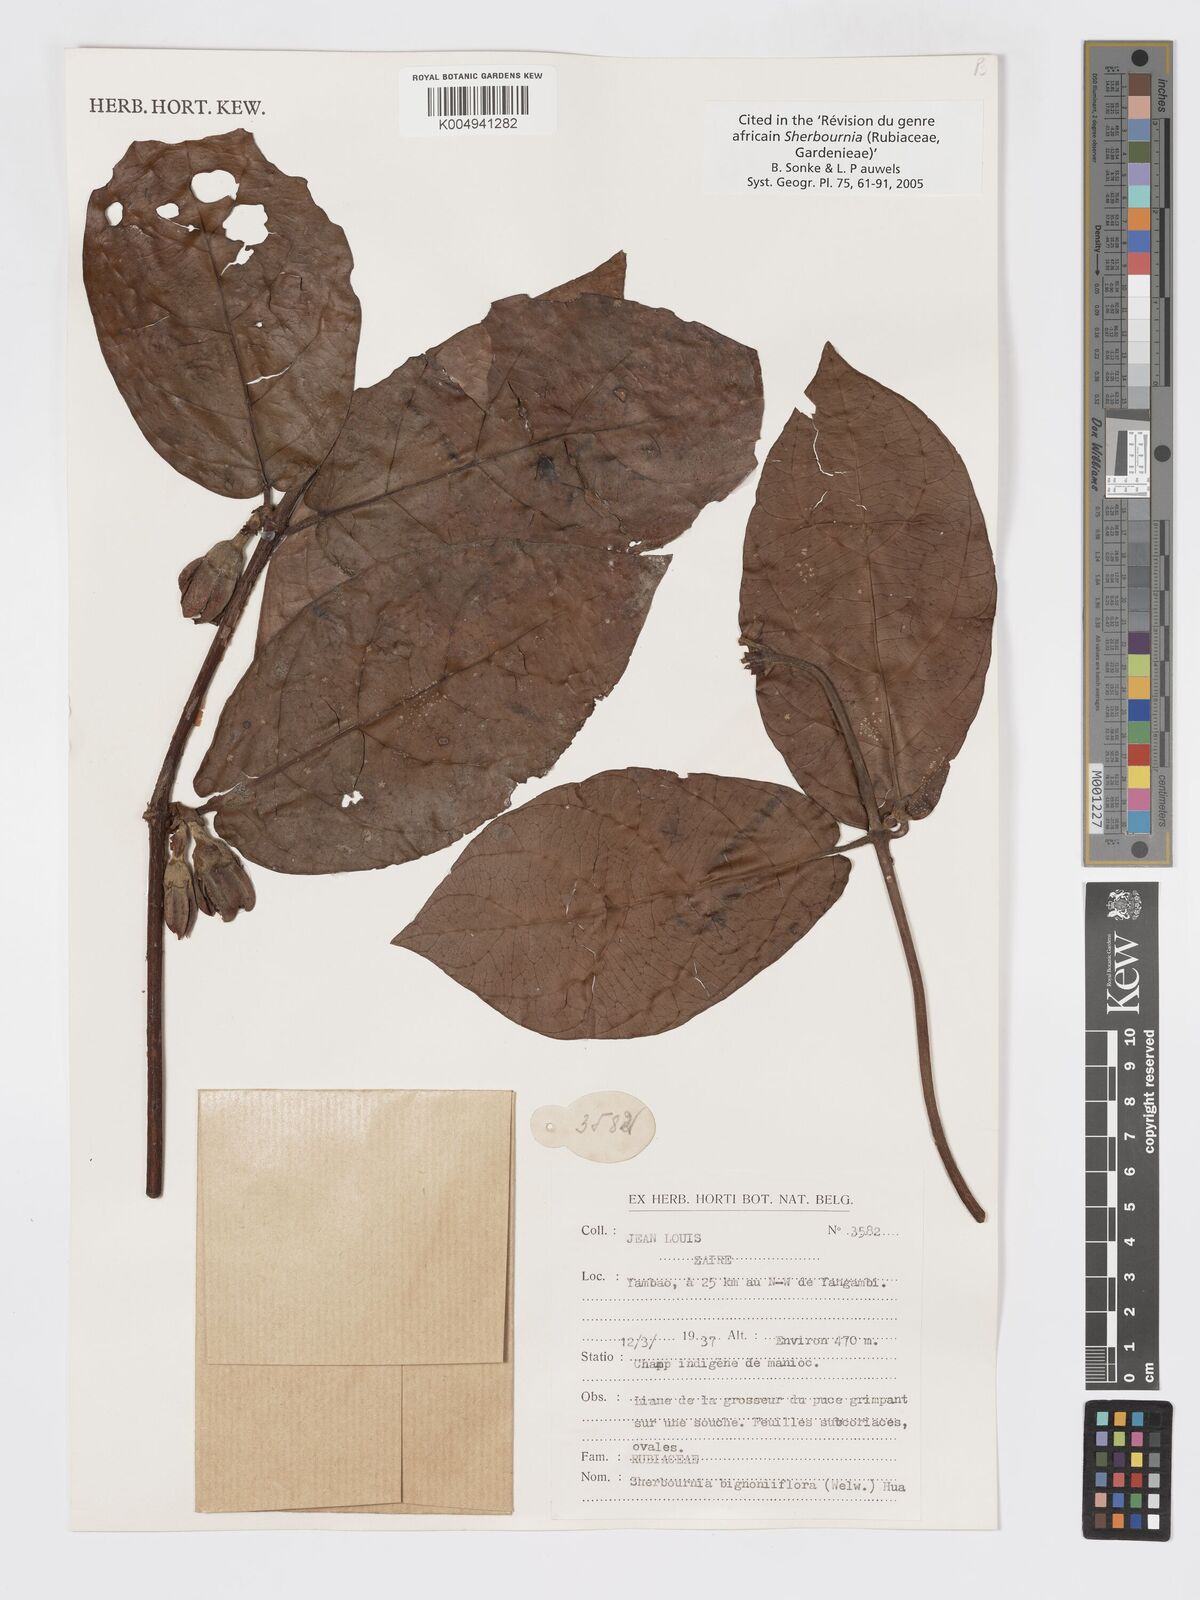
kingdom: Plantae
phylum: Tracheophyta
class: Magnoliopsida
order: Gentianales
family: Rubiaceae
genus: Sherbournia
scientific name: Sherbournia bignoniiflora
